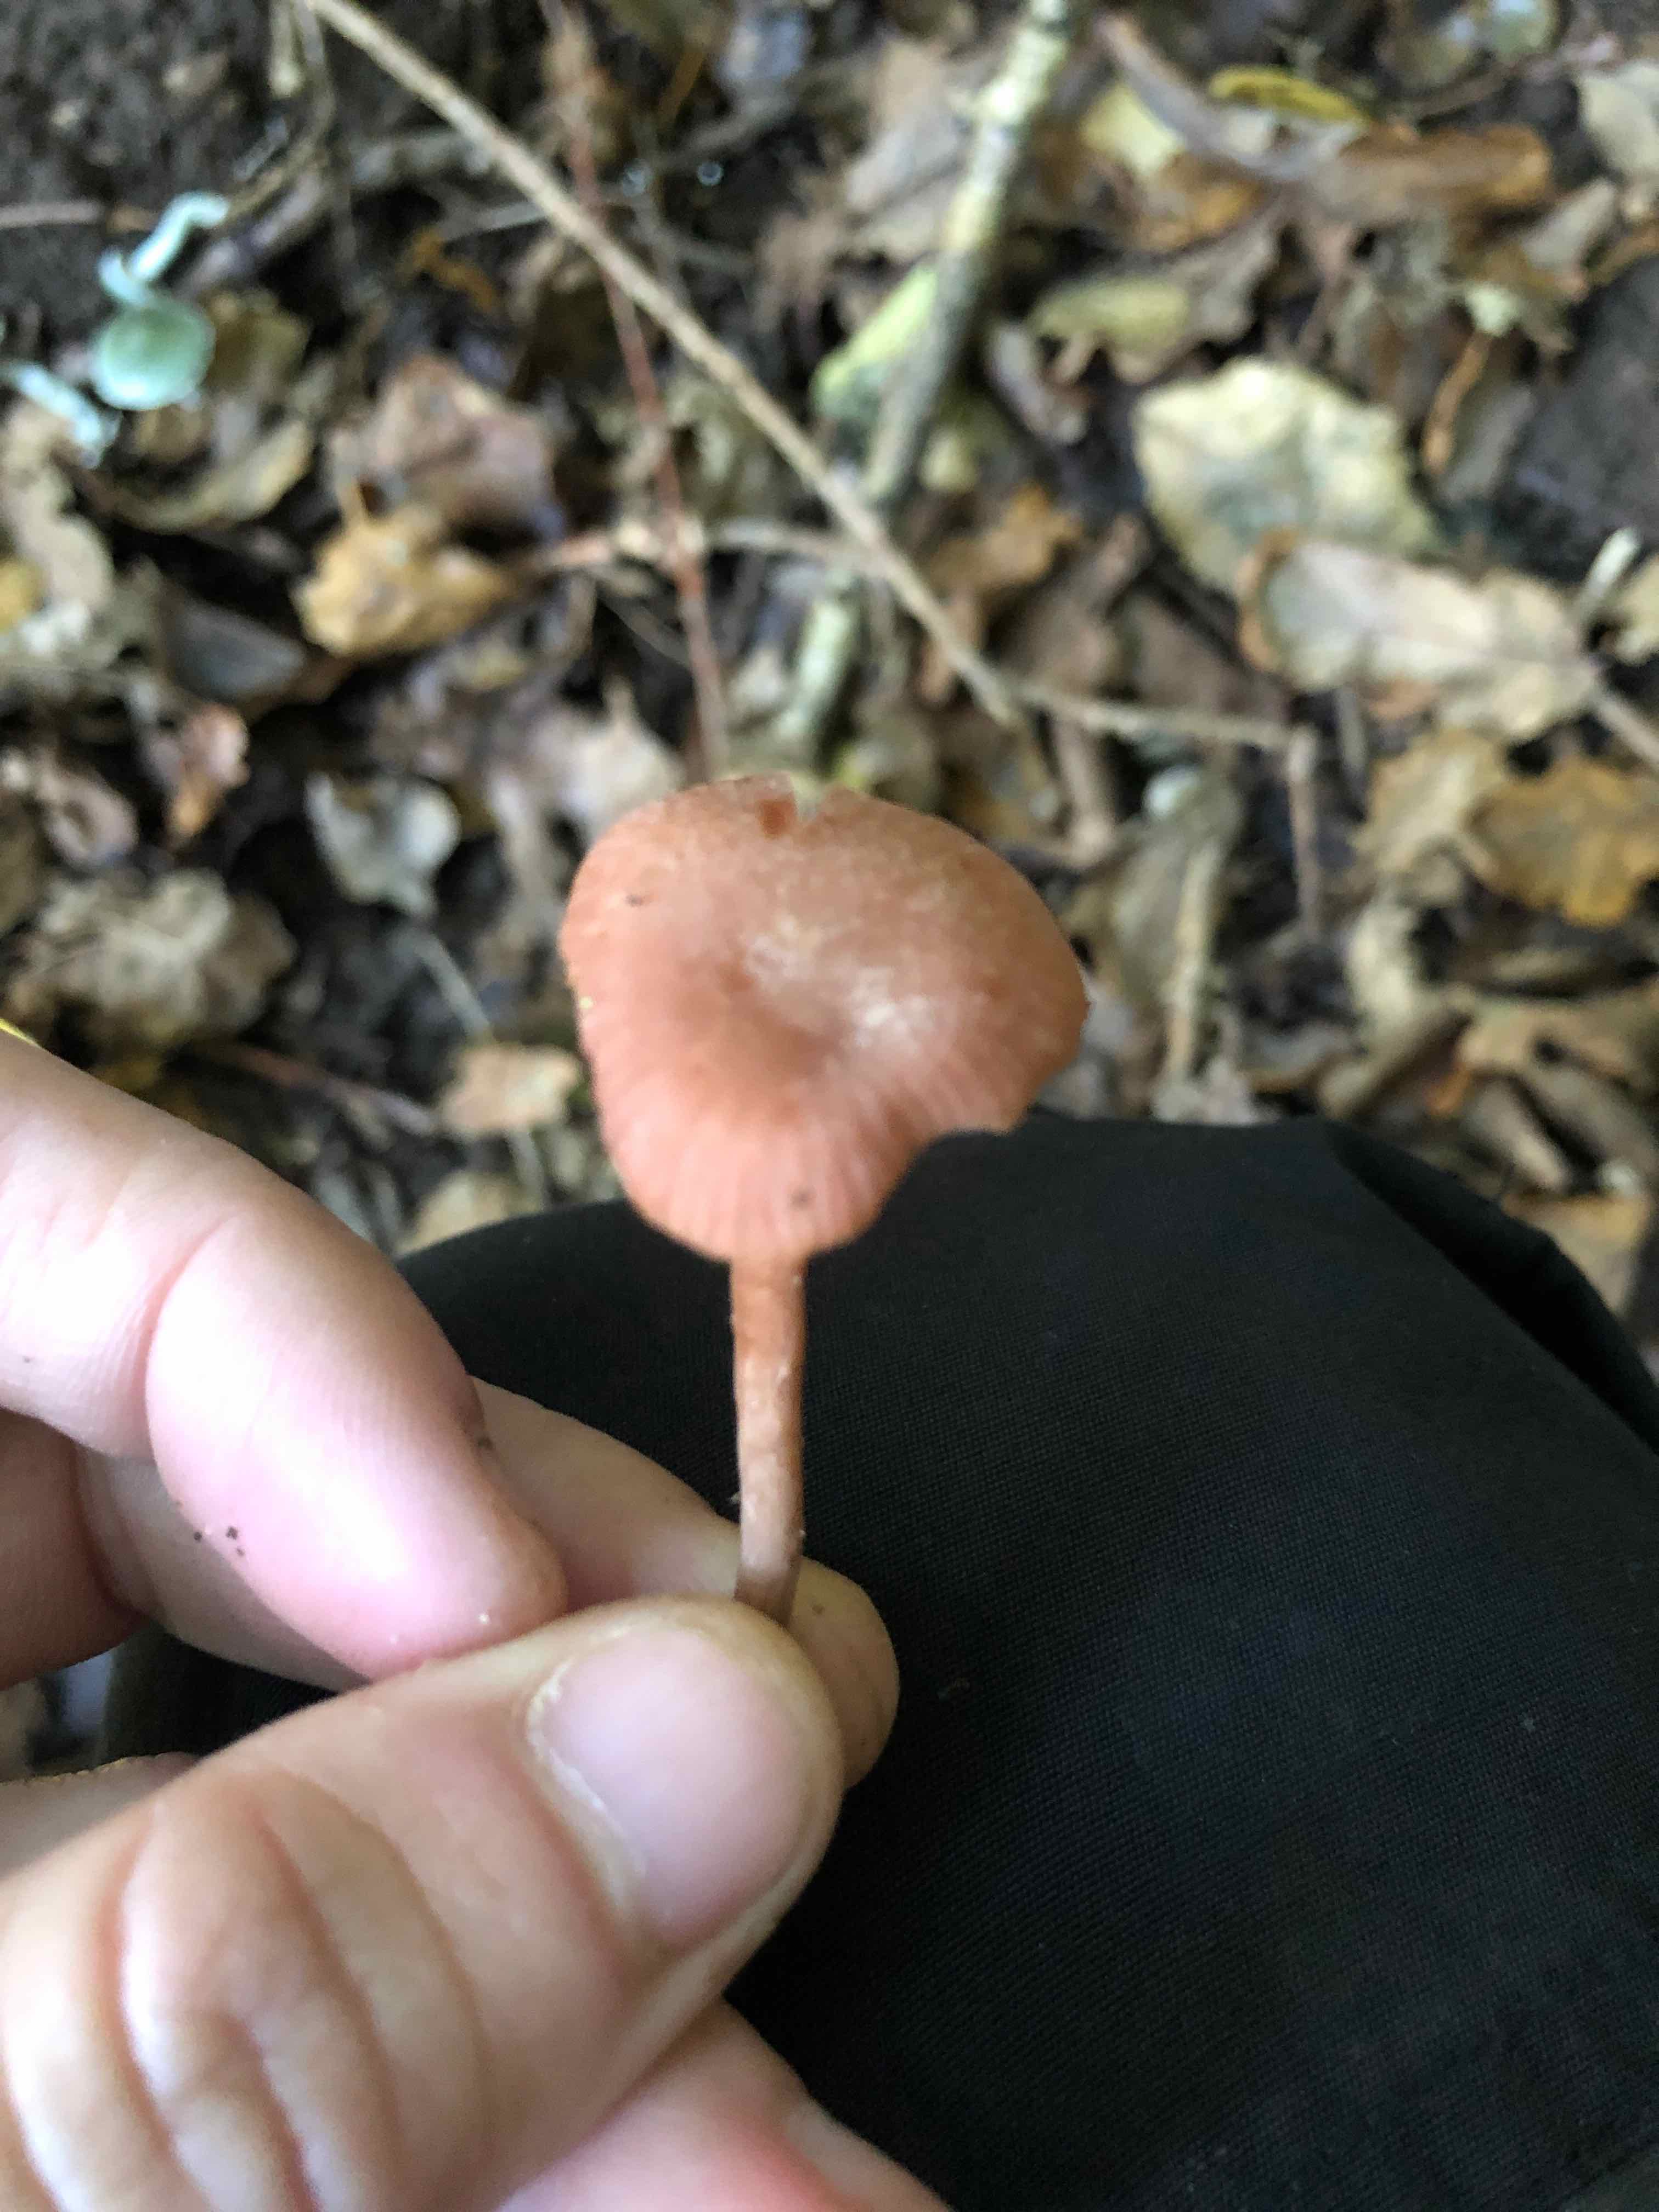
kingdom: Fungi
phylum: Basidiomycota
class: Agaricomycetes
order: Agaricales
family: Hydnangiaceae
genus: Laccaria
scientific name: Laccaria laccata
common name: rød ametysthat
